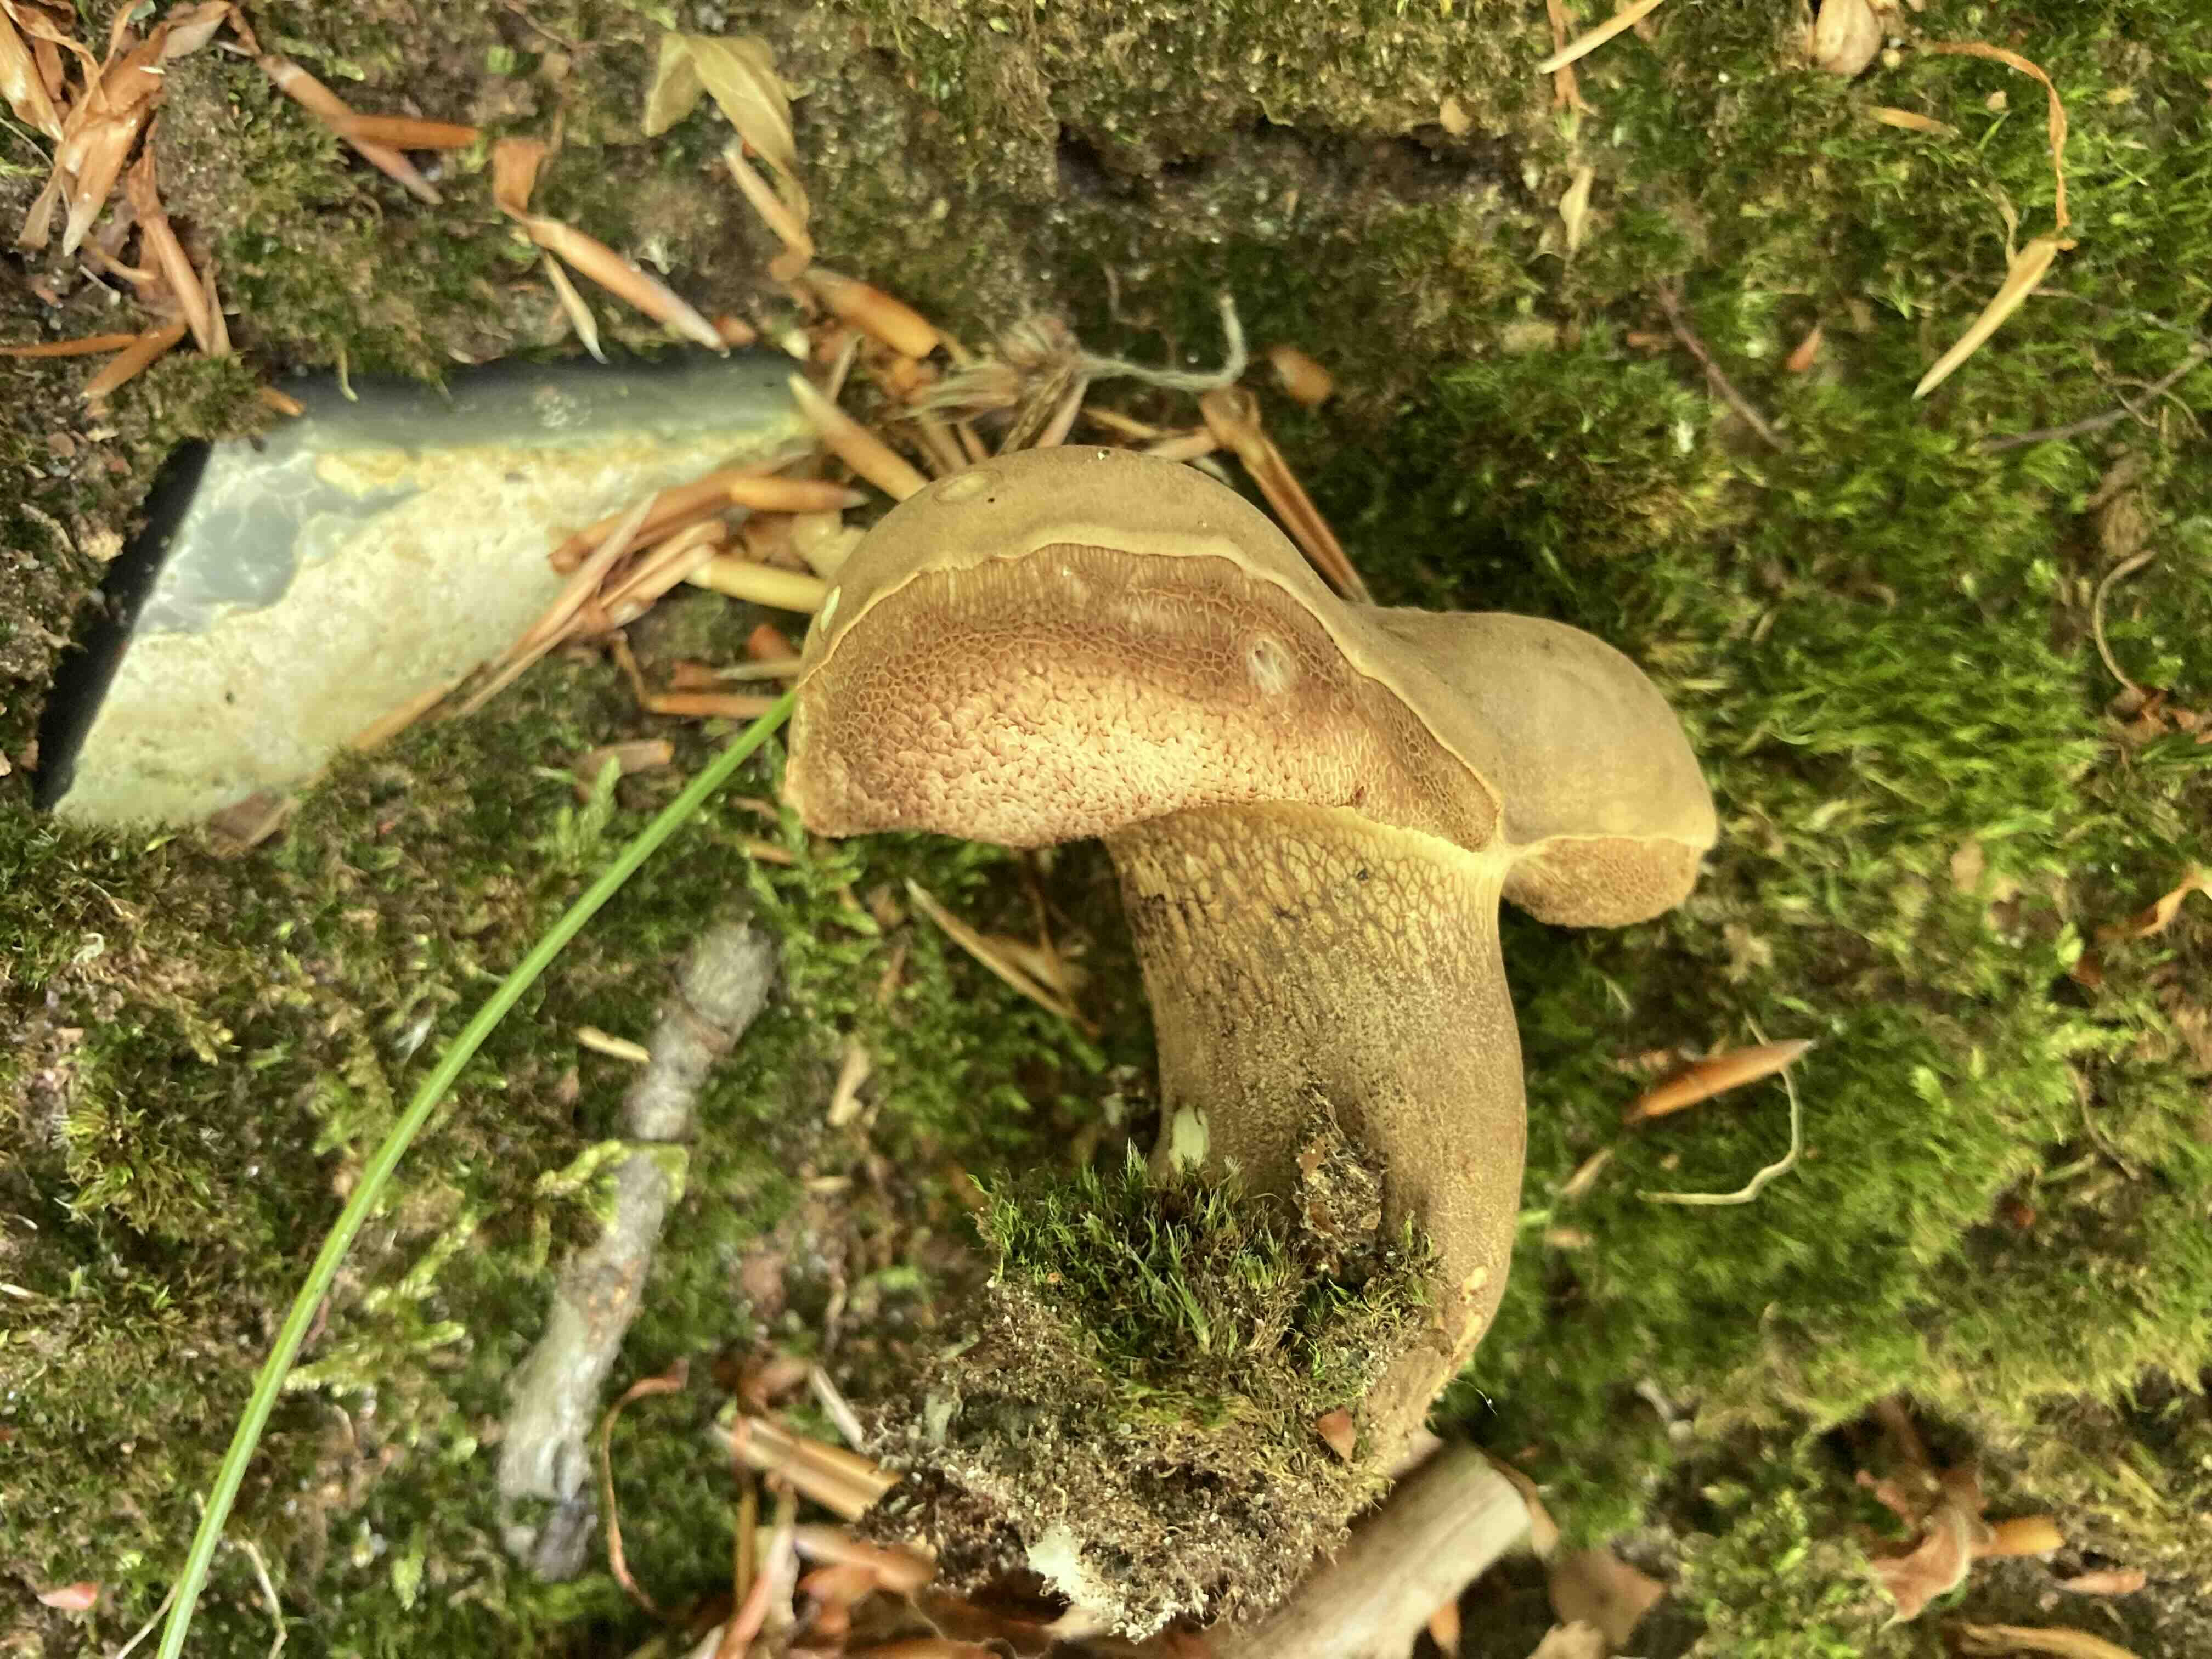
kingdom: Fungi
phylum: Basidiomycota
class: Agaricomycetes
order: Boletales
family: Boletaceae
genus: Tylopilus
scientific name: Tylopilus felleus
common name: galderørhat
